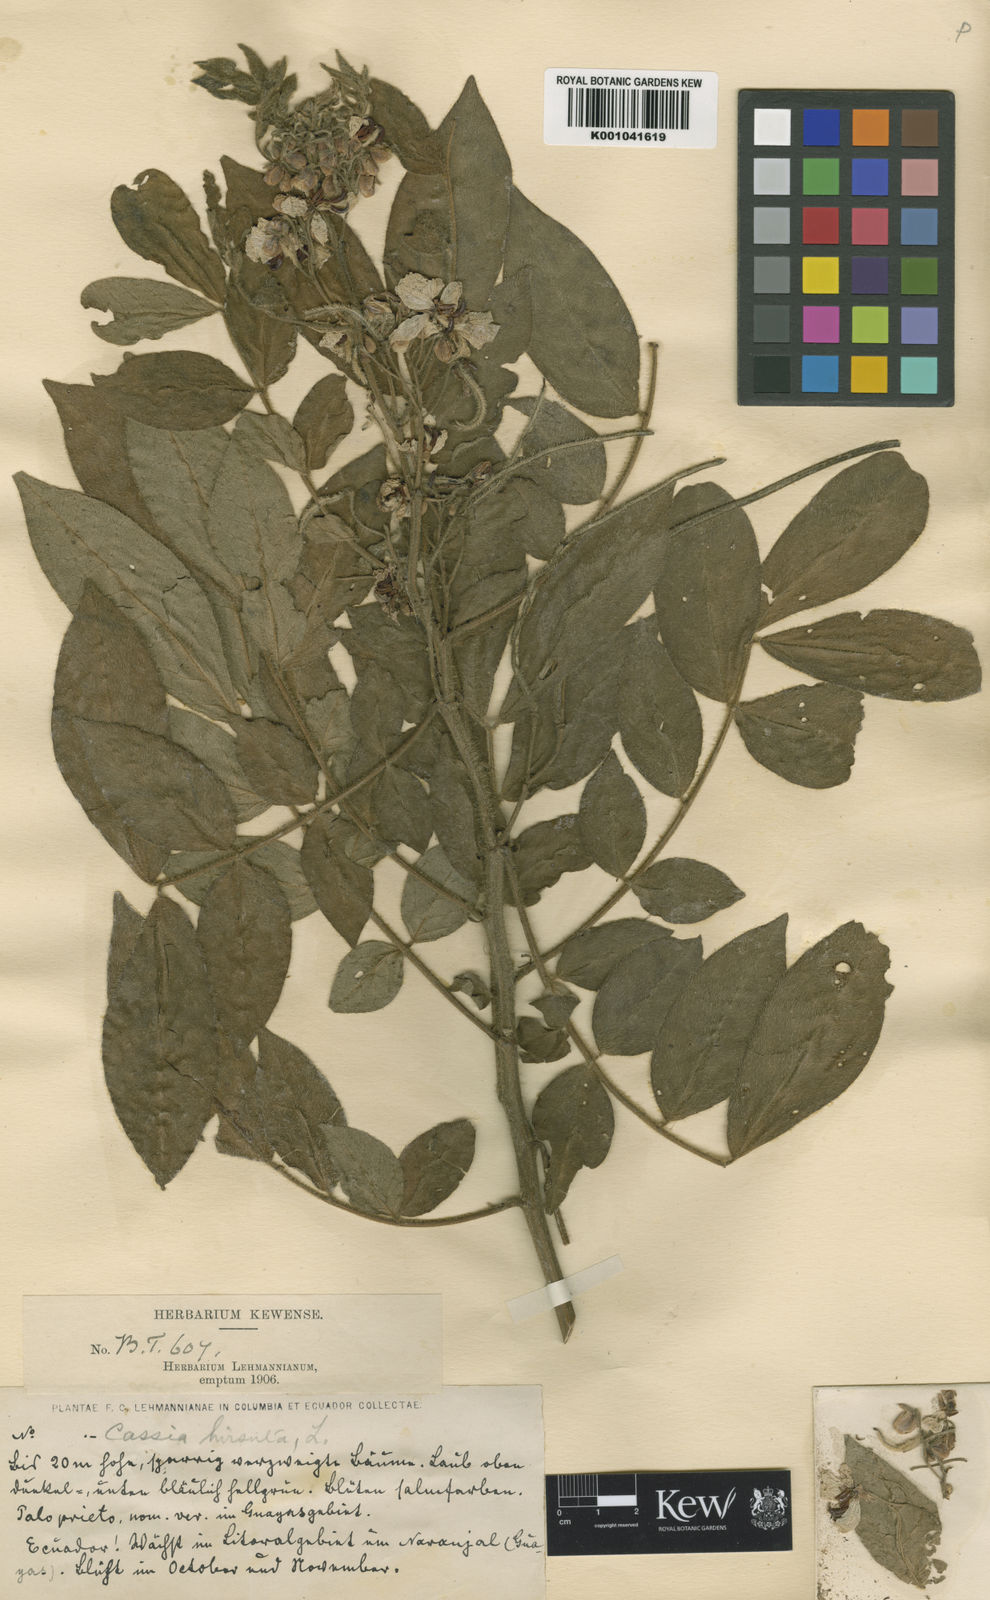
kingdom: Plantae
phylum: Tracheophyta
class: Magnoliopsida
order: Fabales
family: Fabaceae
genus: Senna
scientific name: Senna hirsuta
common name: Woolly senna
